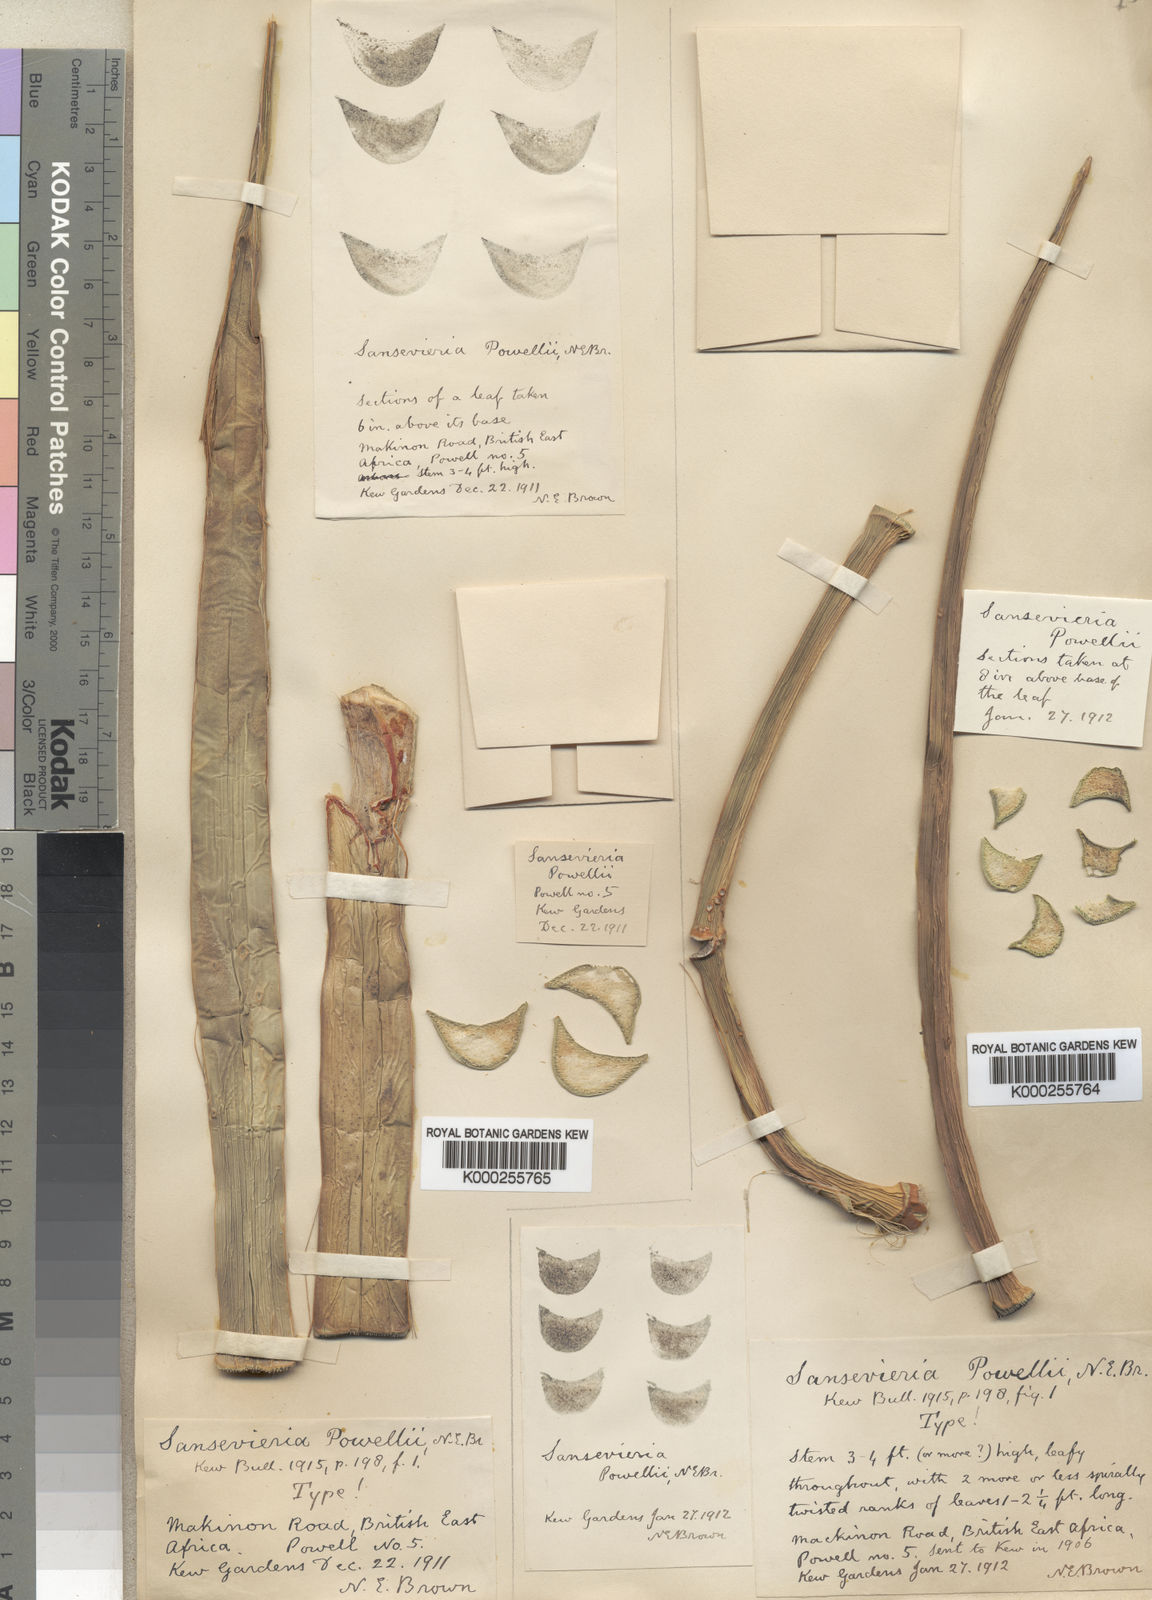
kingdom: Plantae
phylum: Tracheophyta
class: Liliopsida
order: Asparagales
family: Asparagaceae
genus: Dracaena
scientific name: Dracaena powellii
